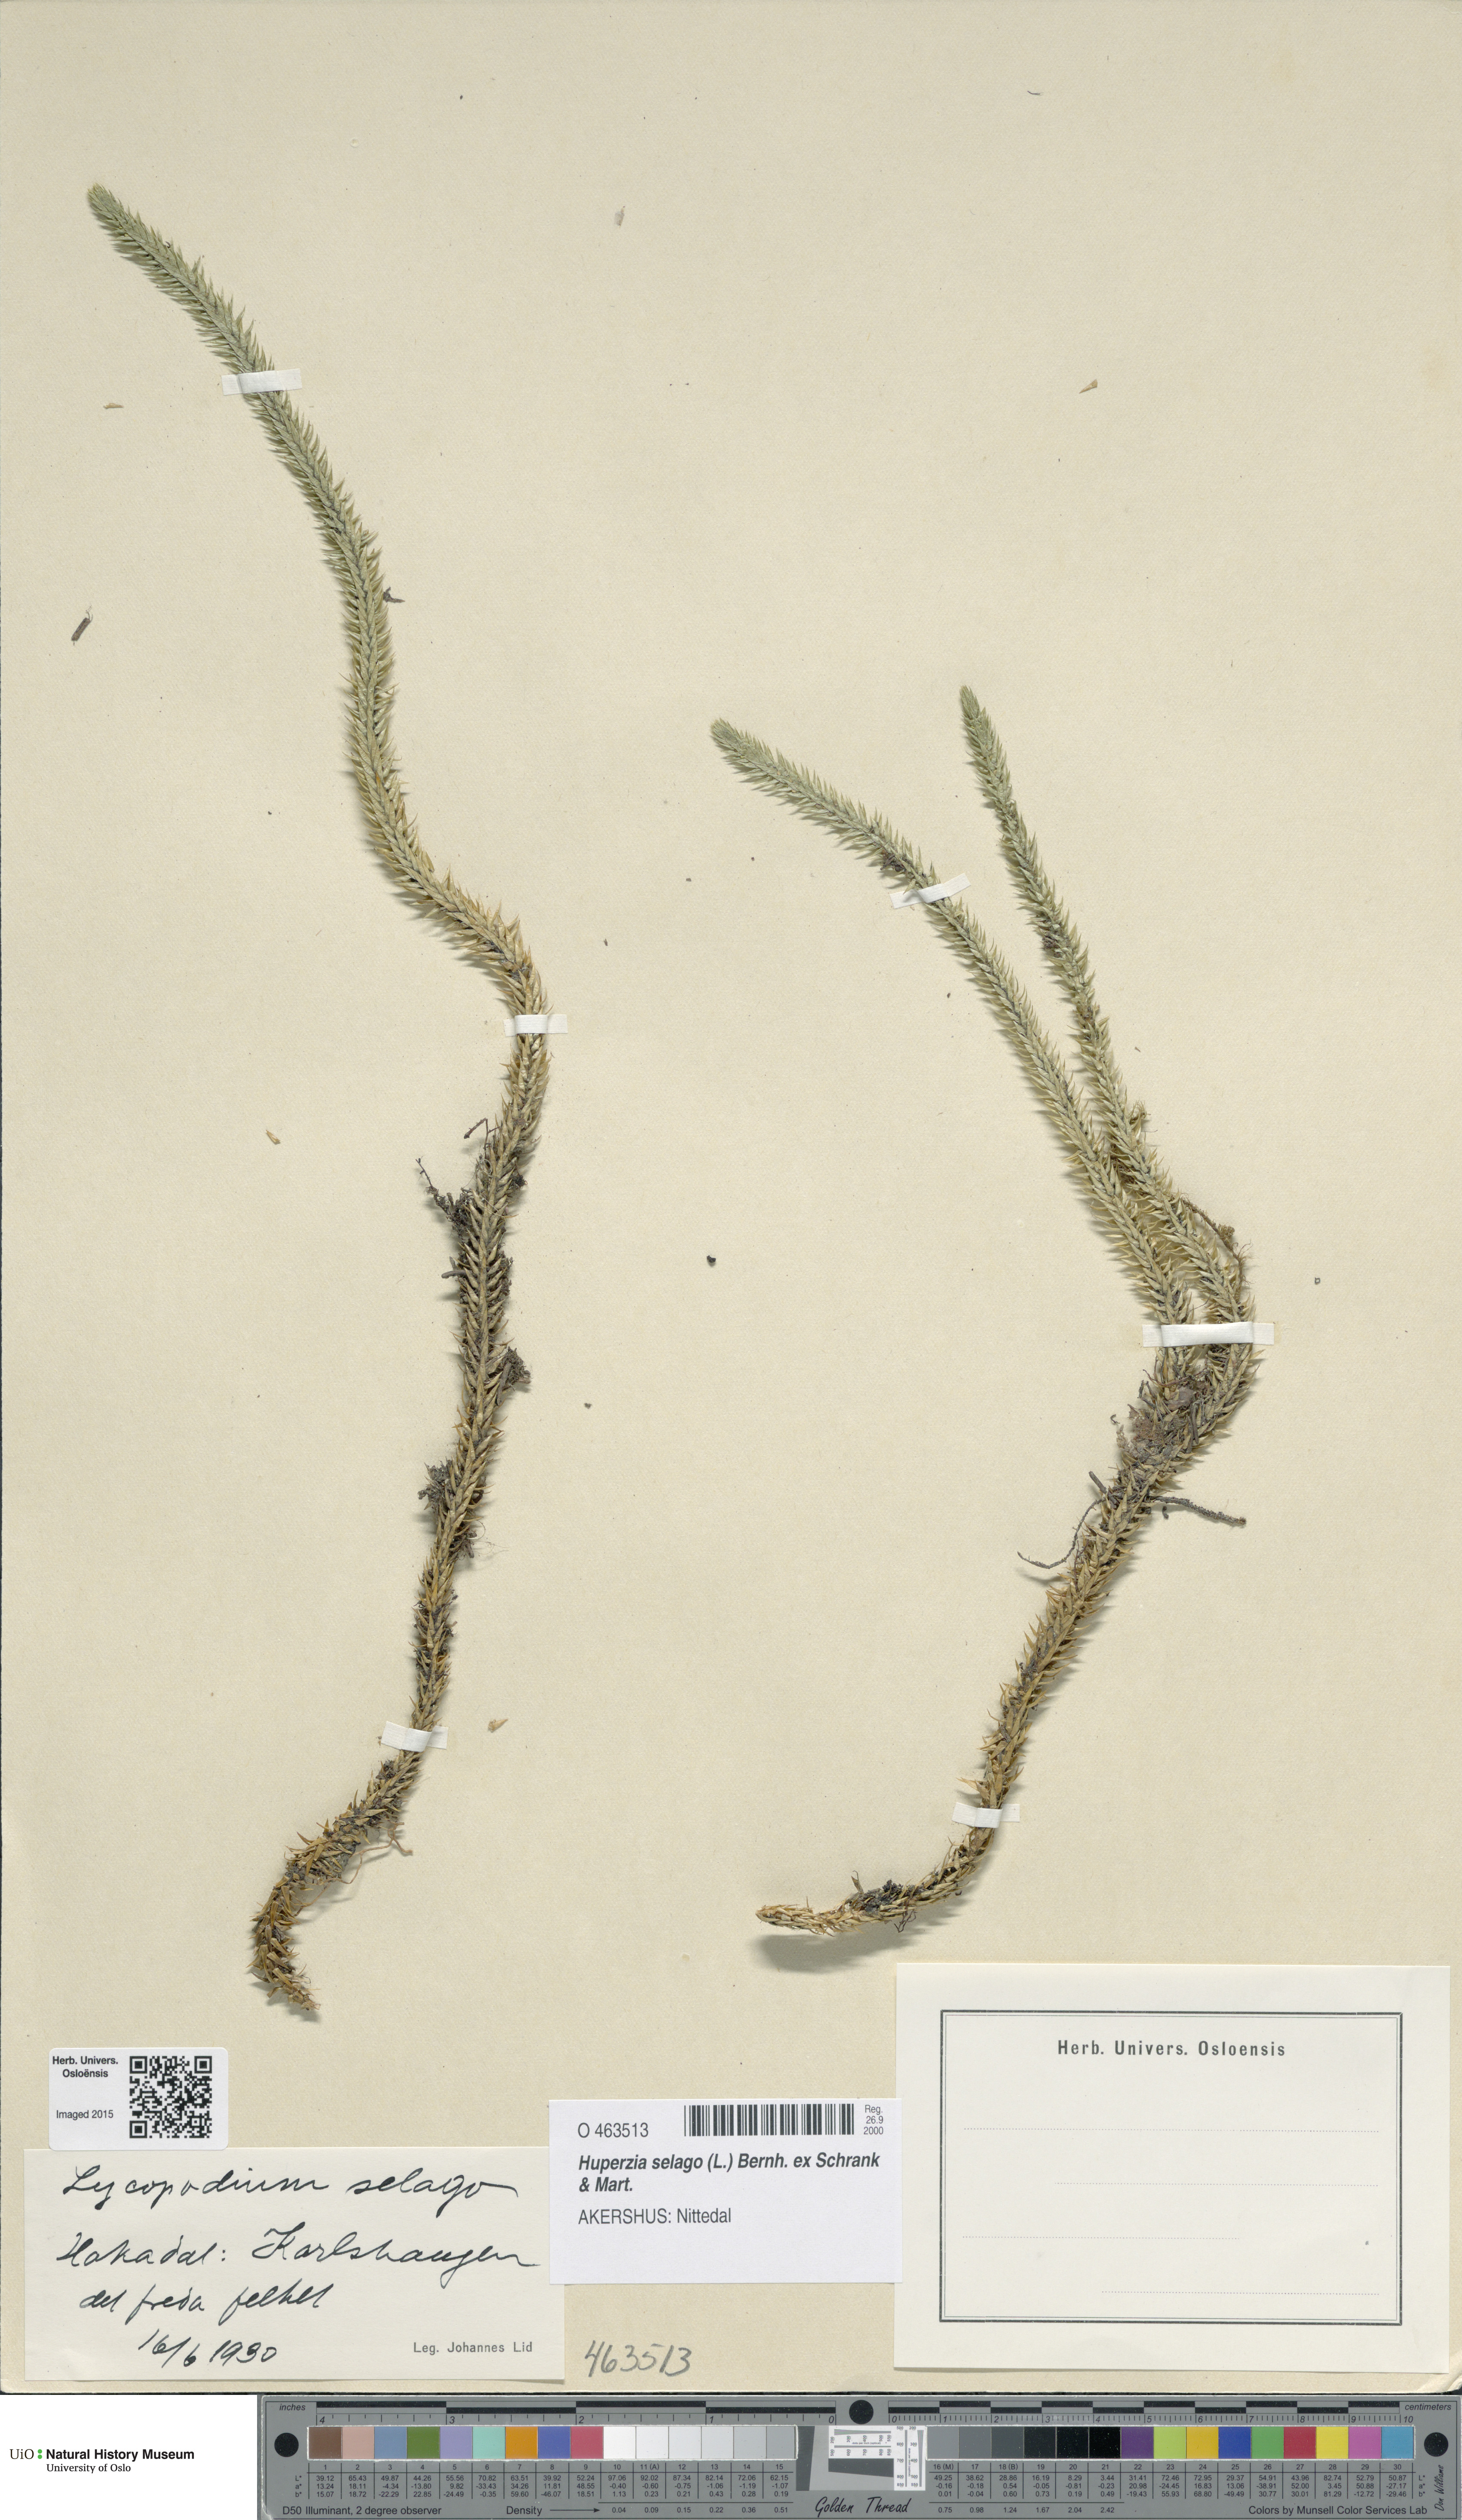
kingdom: Plantae
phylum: Tracheophyta
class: Lycopodiopsida
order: Lycopodiales
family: Lycopodiaceae
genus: Huperzia
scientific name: Huperzia selago
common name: Northern firmoss
